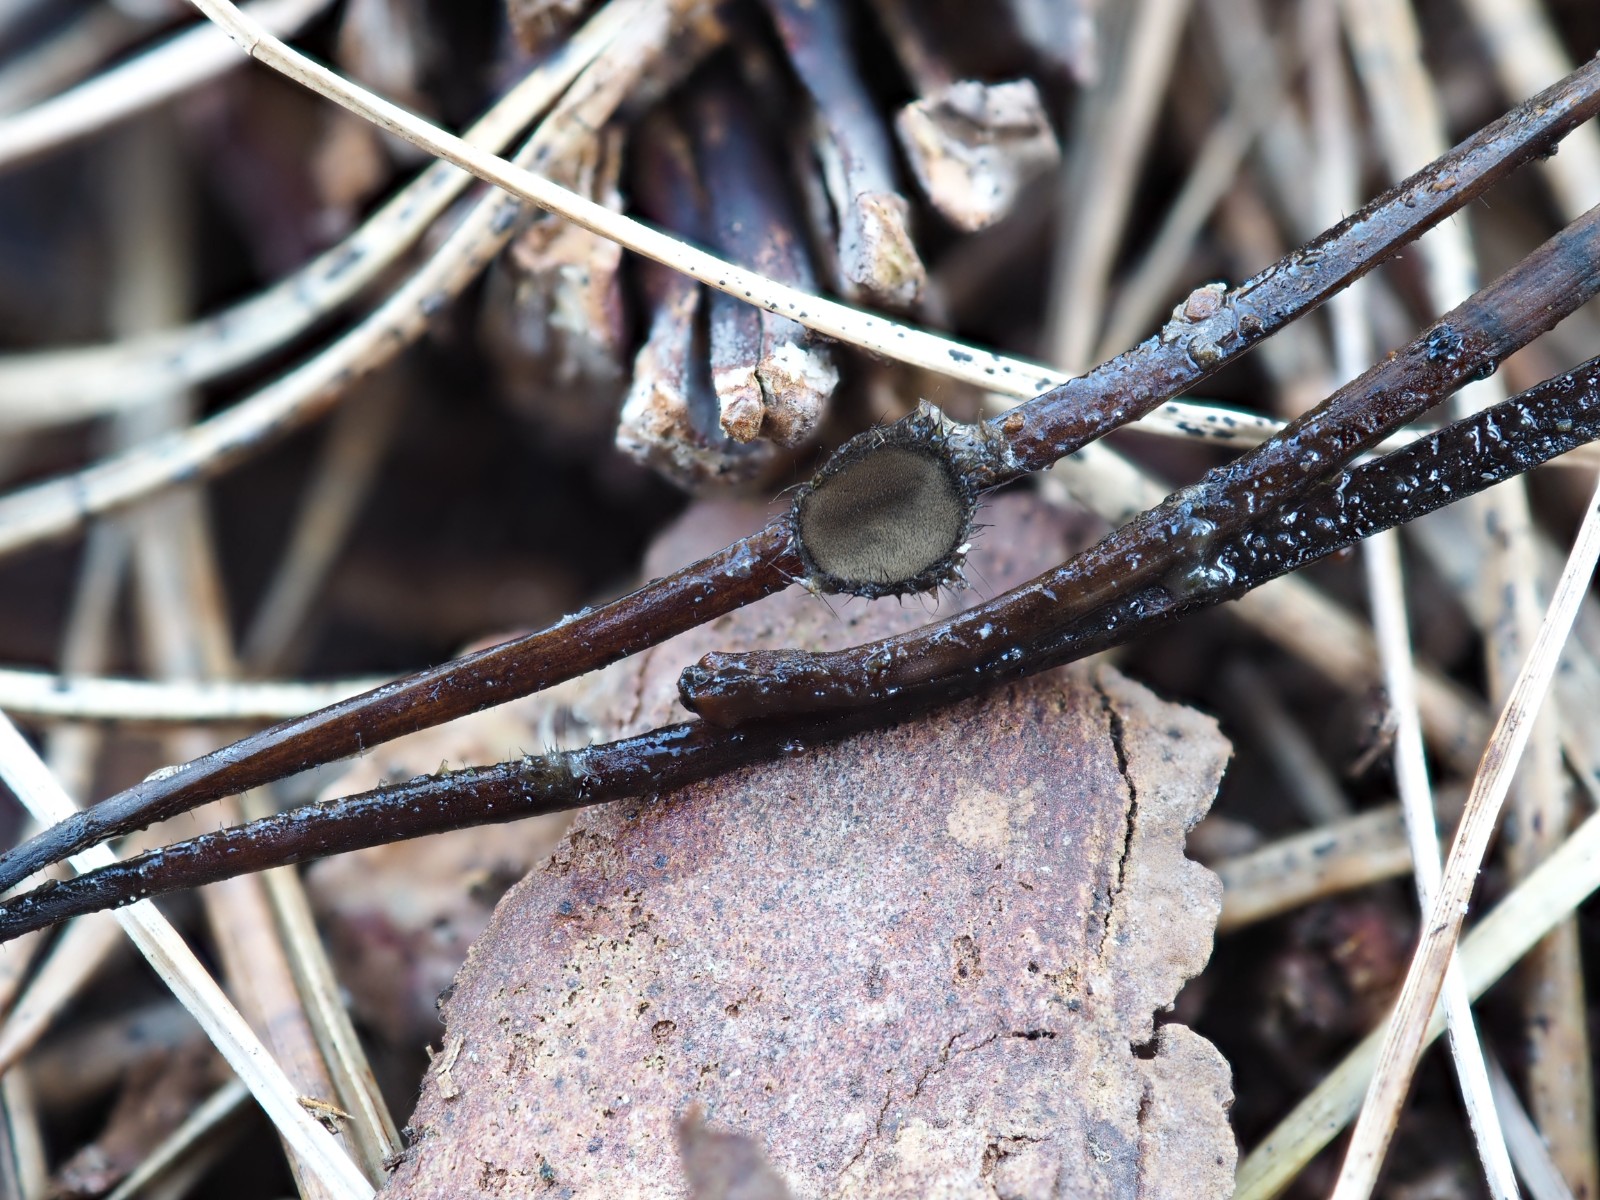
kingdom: Fungi
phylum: Ascomycota
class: Pezizomycetes
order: Pezizales
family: Chorioactidaceae
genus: Desmazierella
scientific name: Desmazierella acicola
